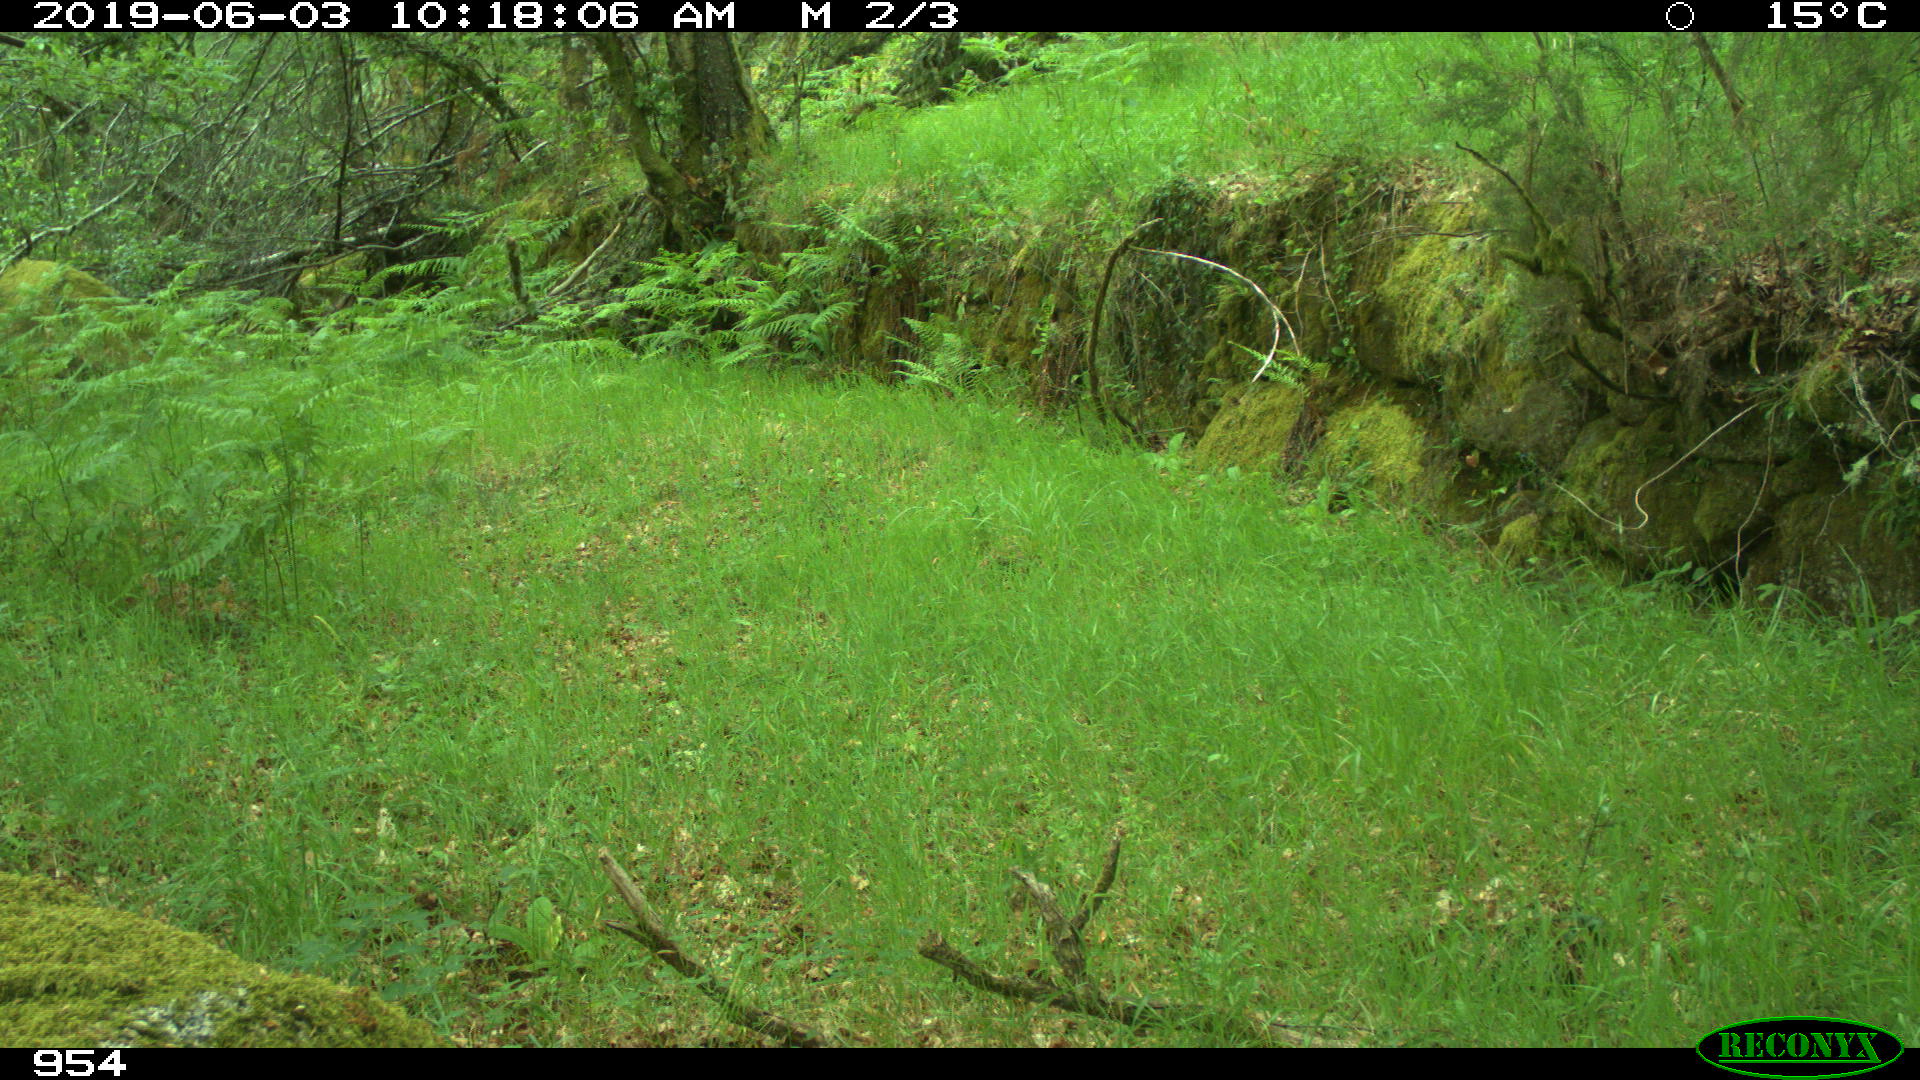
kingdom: Animalia
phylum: Chordata
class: Mammalia
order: Artiodactyla
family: Cervidae
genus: Capreolus
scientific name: Capreolus capreolus
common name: Western roe deer
